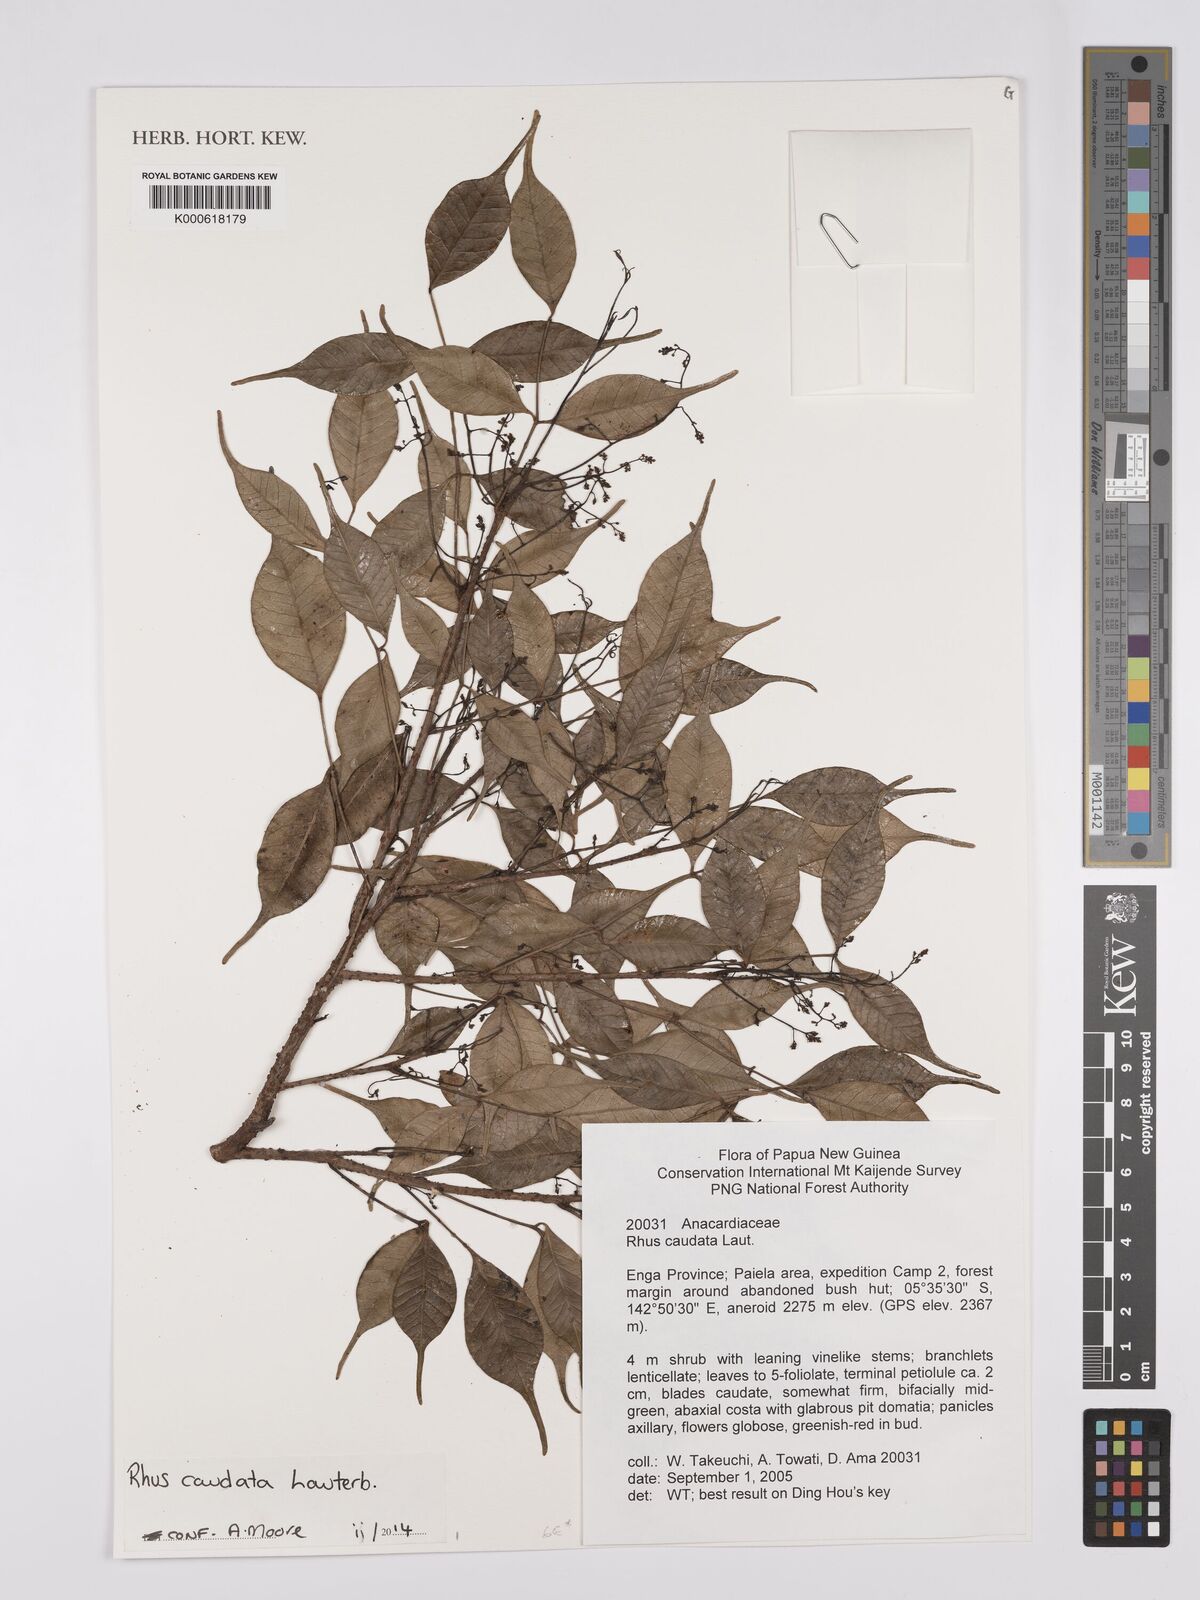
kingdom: Plantae
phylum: Tracheophyta
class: Magnoliopsida
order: Sapindales
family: Anacardiaceae
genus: Rhus
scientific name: Rhus caudata
